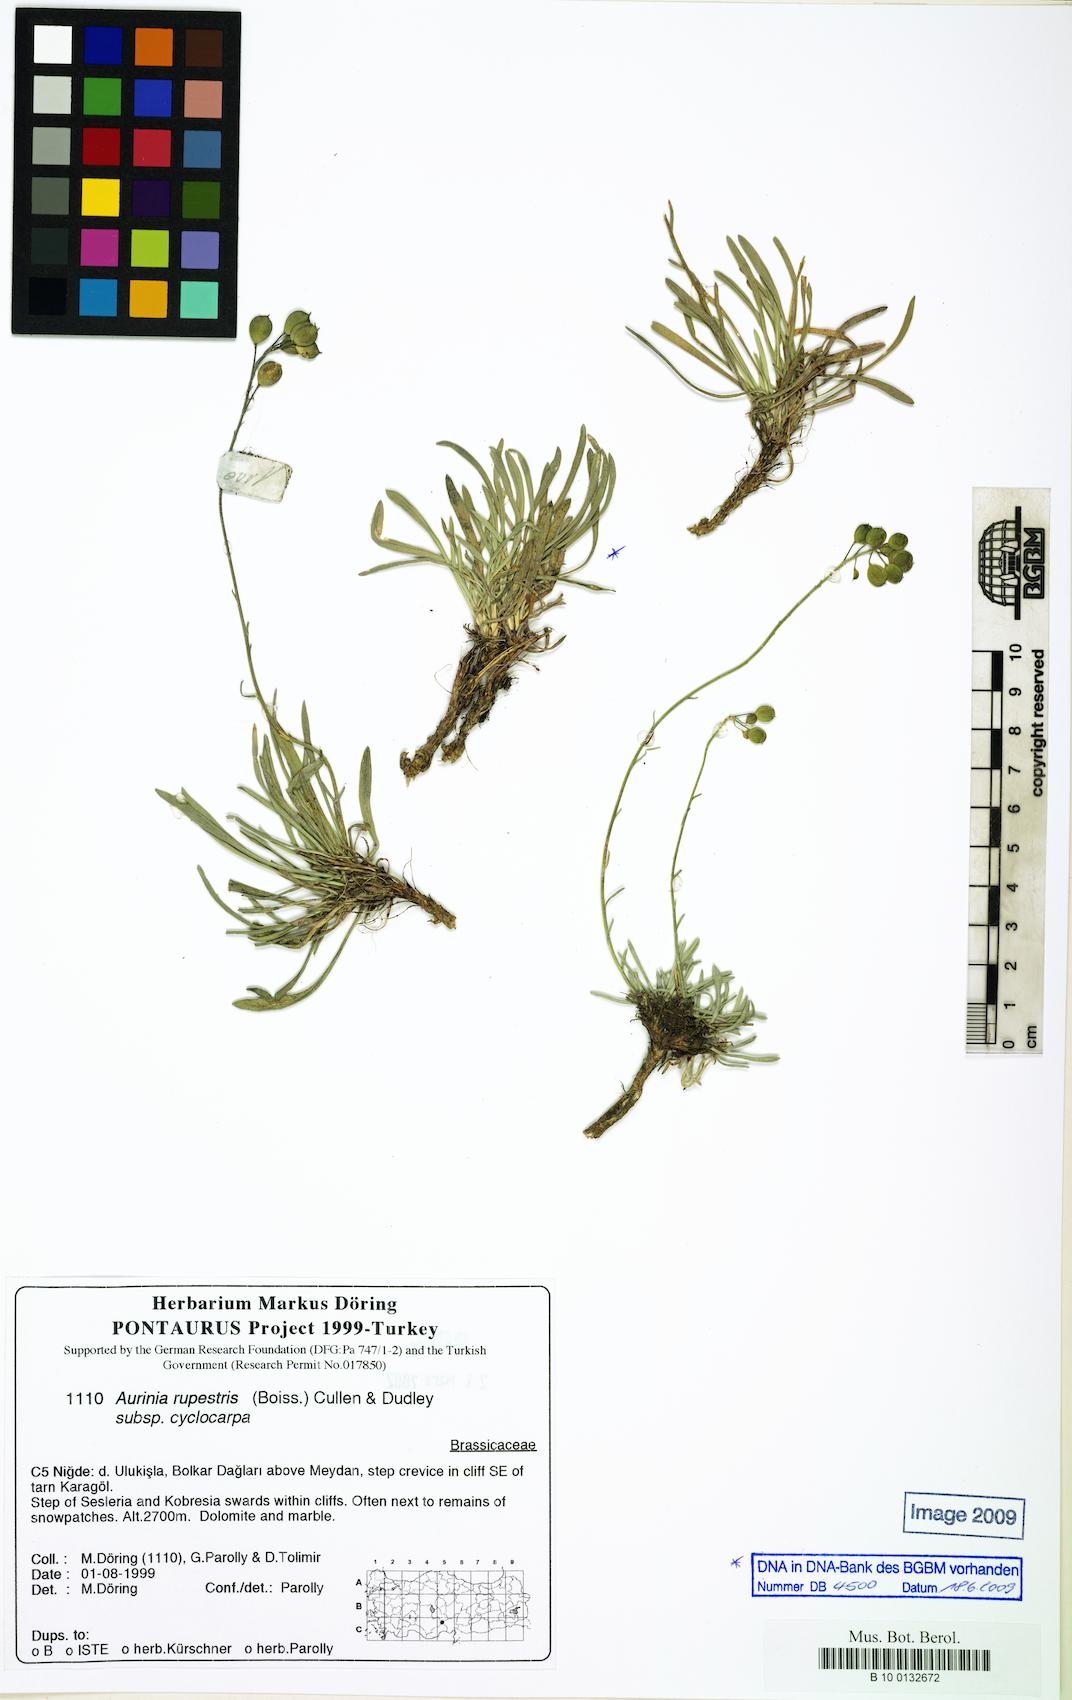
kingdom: Plantae
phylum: Tracheophyta
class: Magnoliopsida
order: Brassicales
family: Brassicaceae
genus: Phyllolepidium
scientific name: Phyllolepidium cyclocarpum
